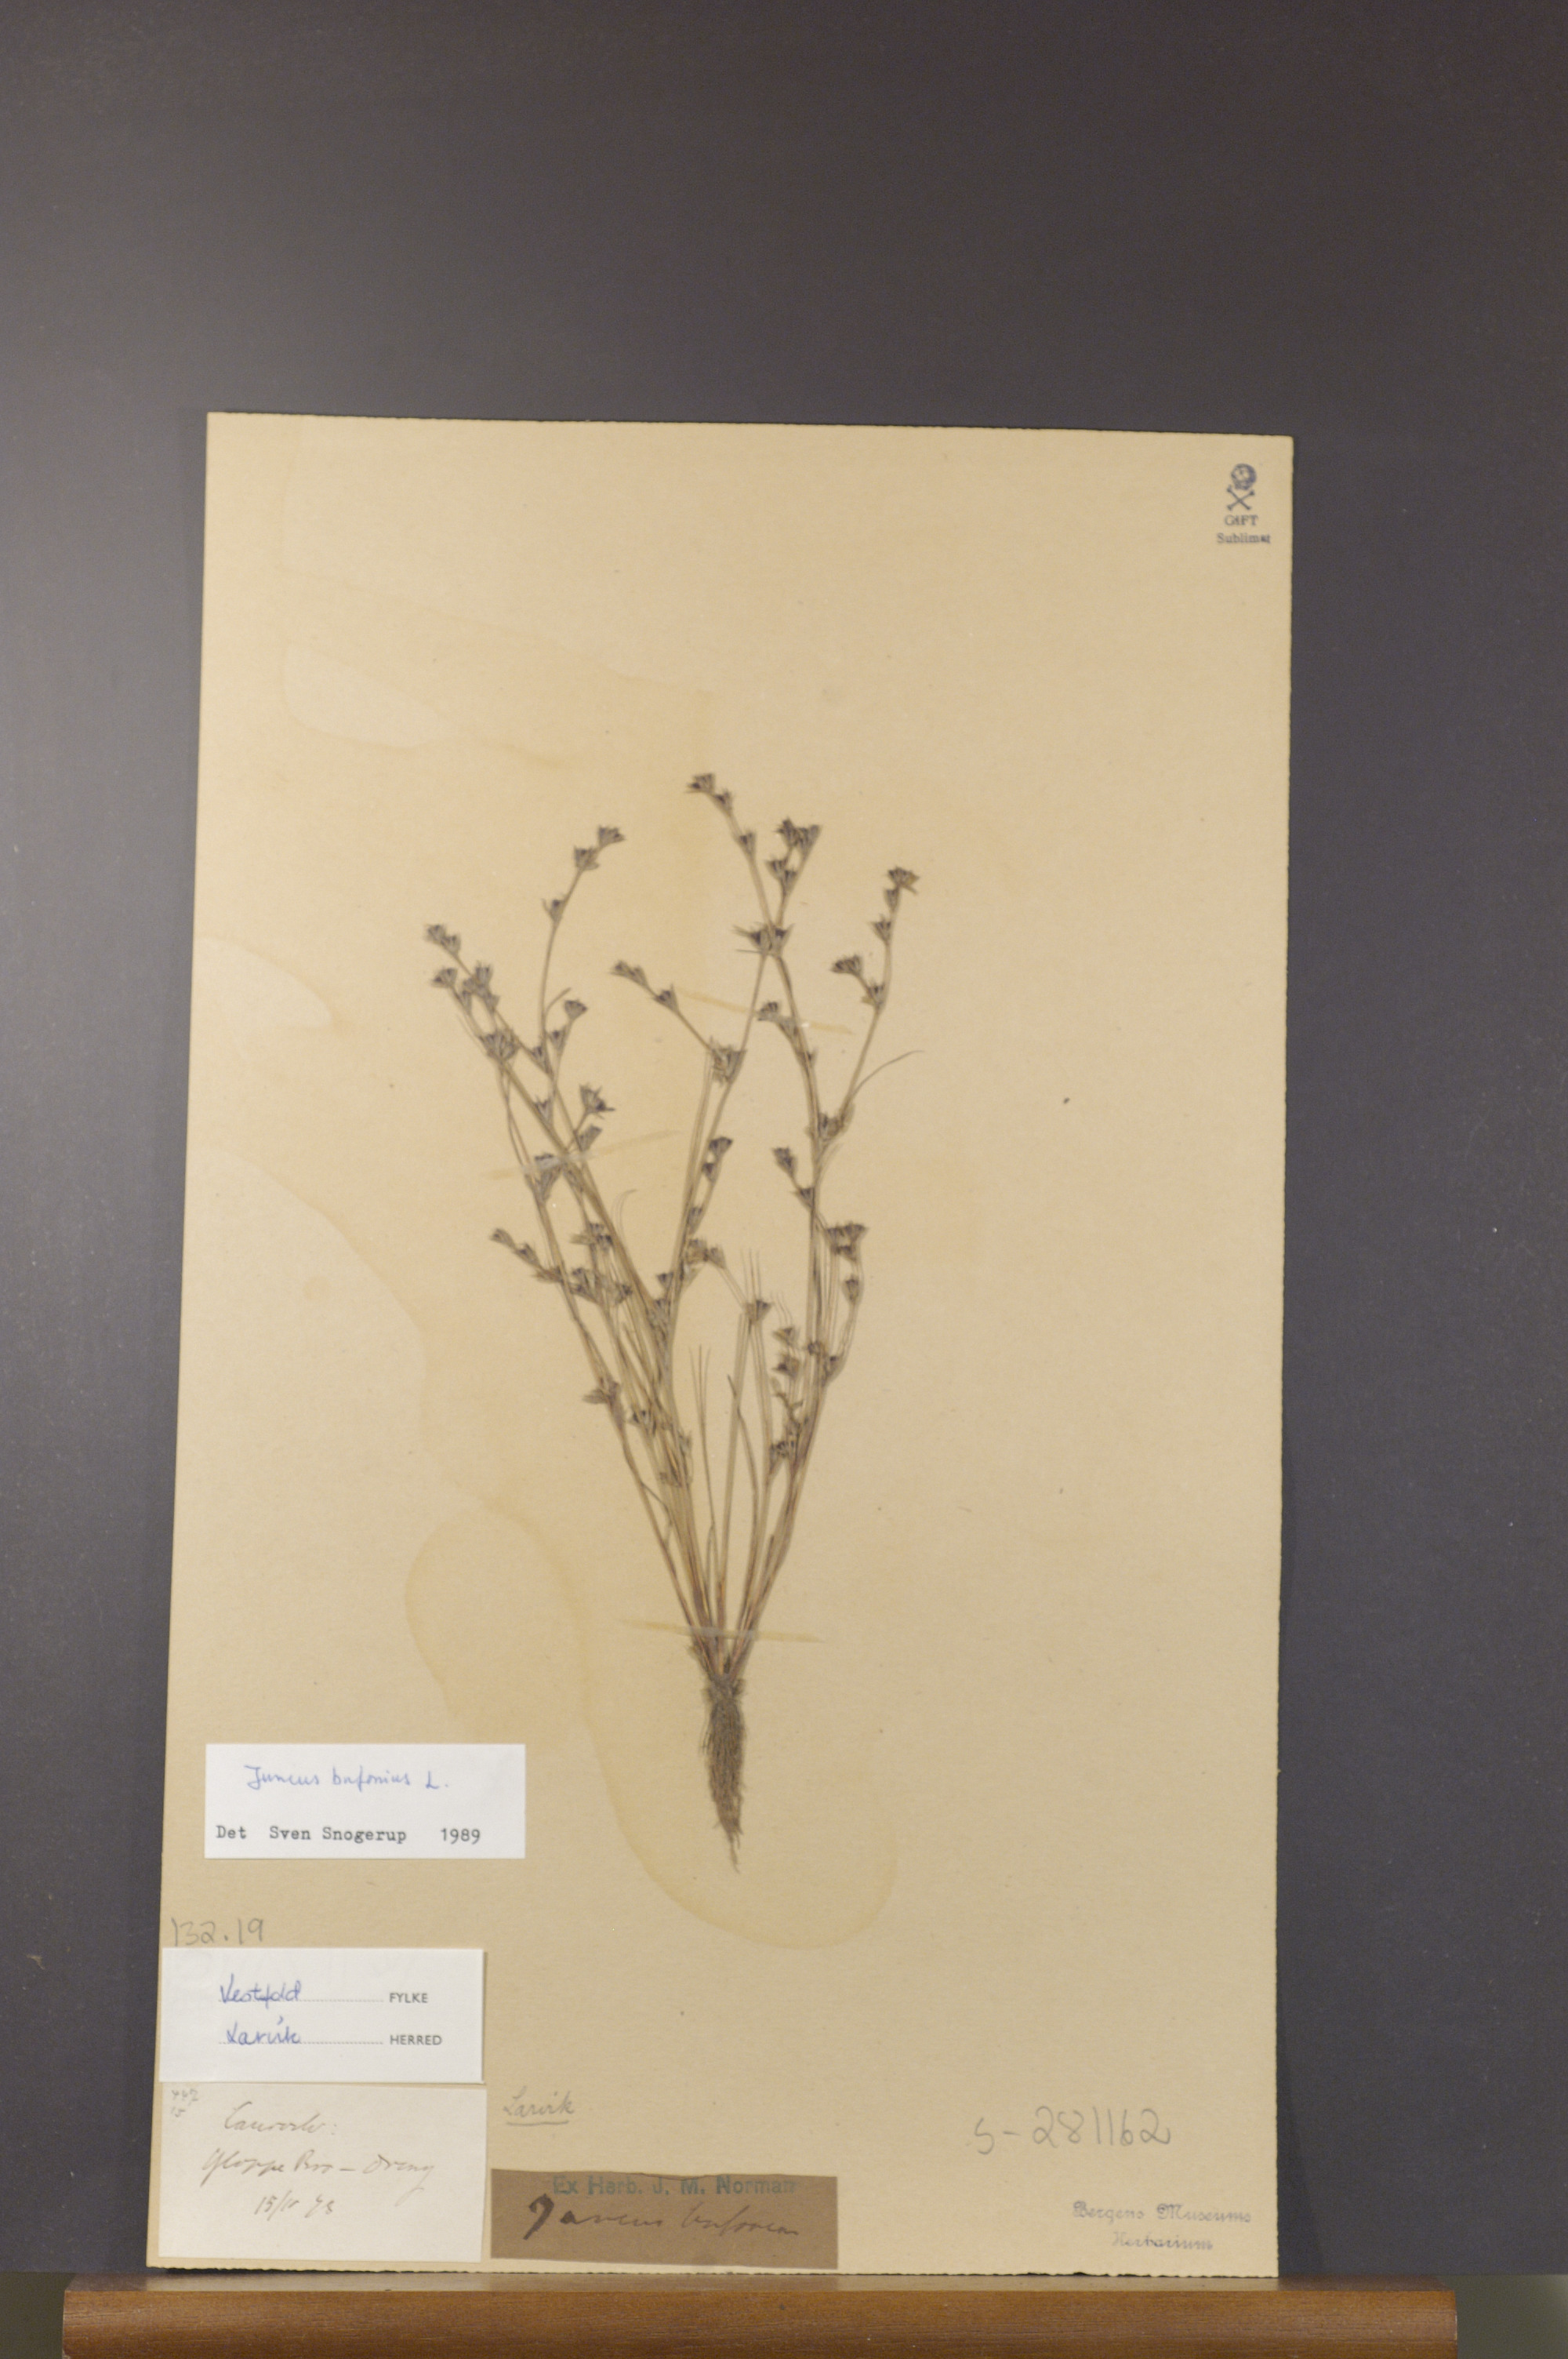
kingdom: Plantae
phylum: Tracheophyta
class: Liliopsida
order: Poales
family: Juncaceae
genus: Juncus
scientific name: Juncus bufonius
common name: Toad rush
